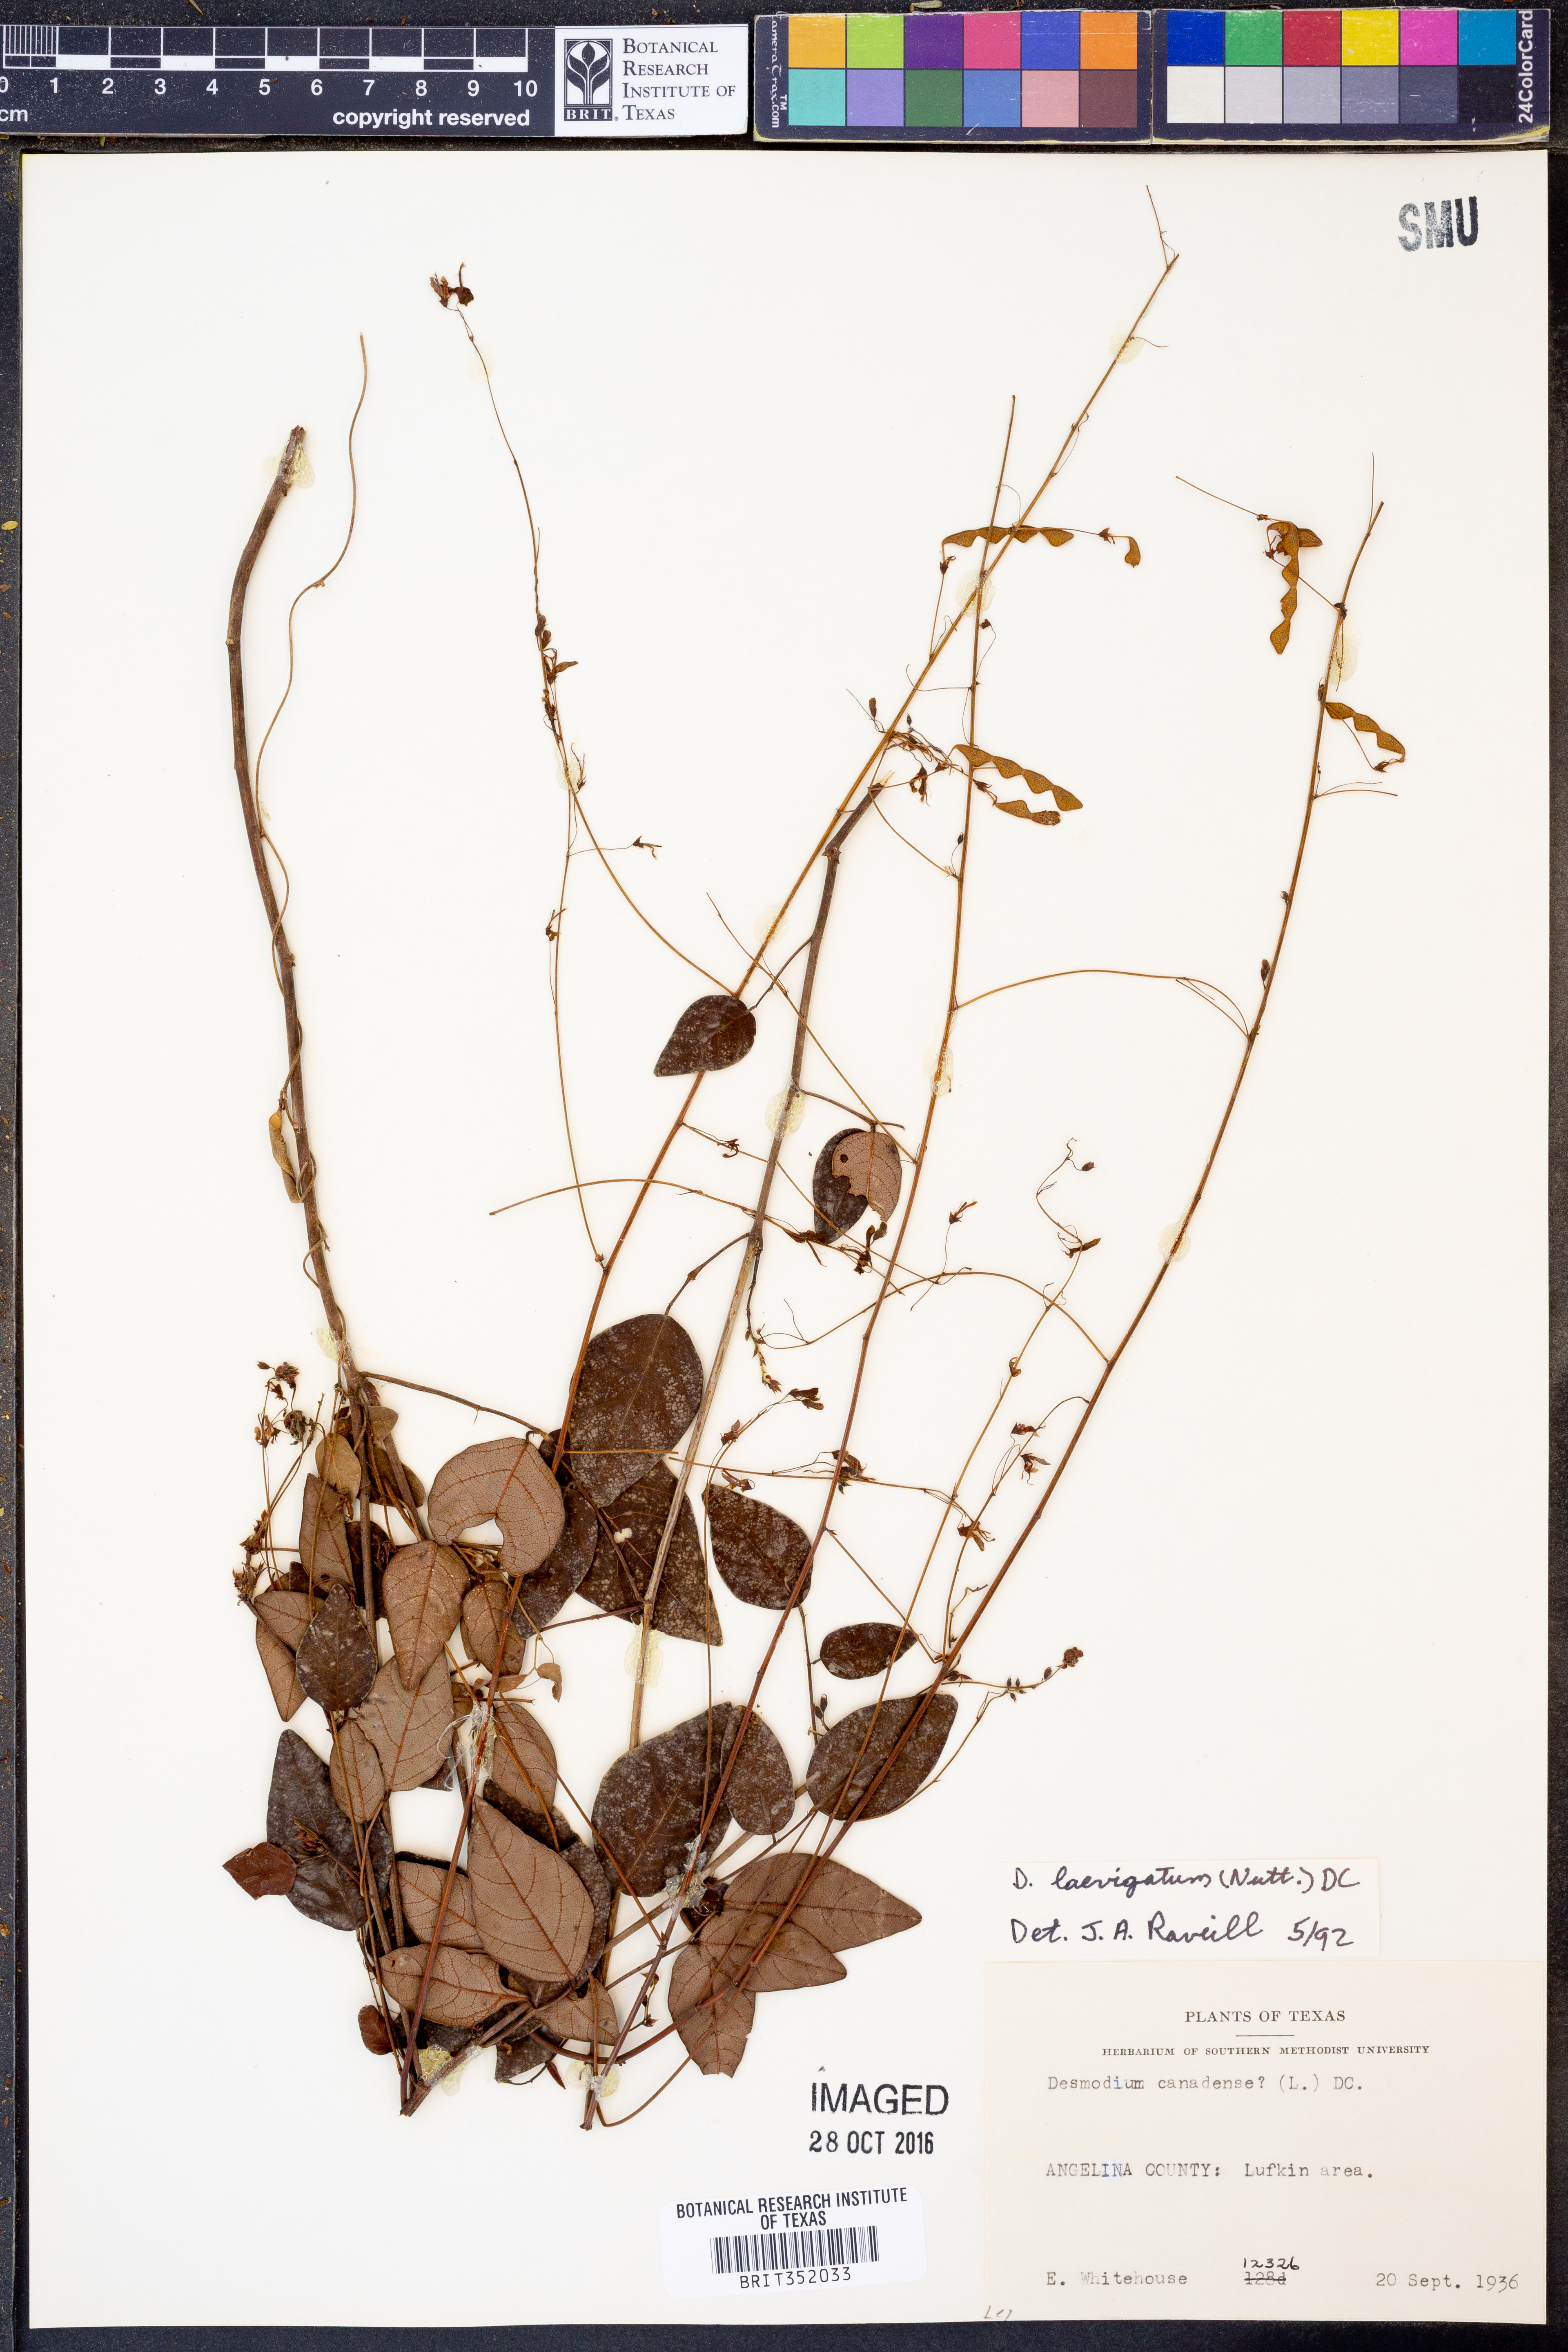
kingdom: Plantae
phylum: Tracheophyta
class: Magnoliopsida
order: Fabales
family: Fabaceae
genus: Desmodium
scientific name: Desmodium laevigatum
